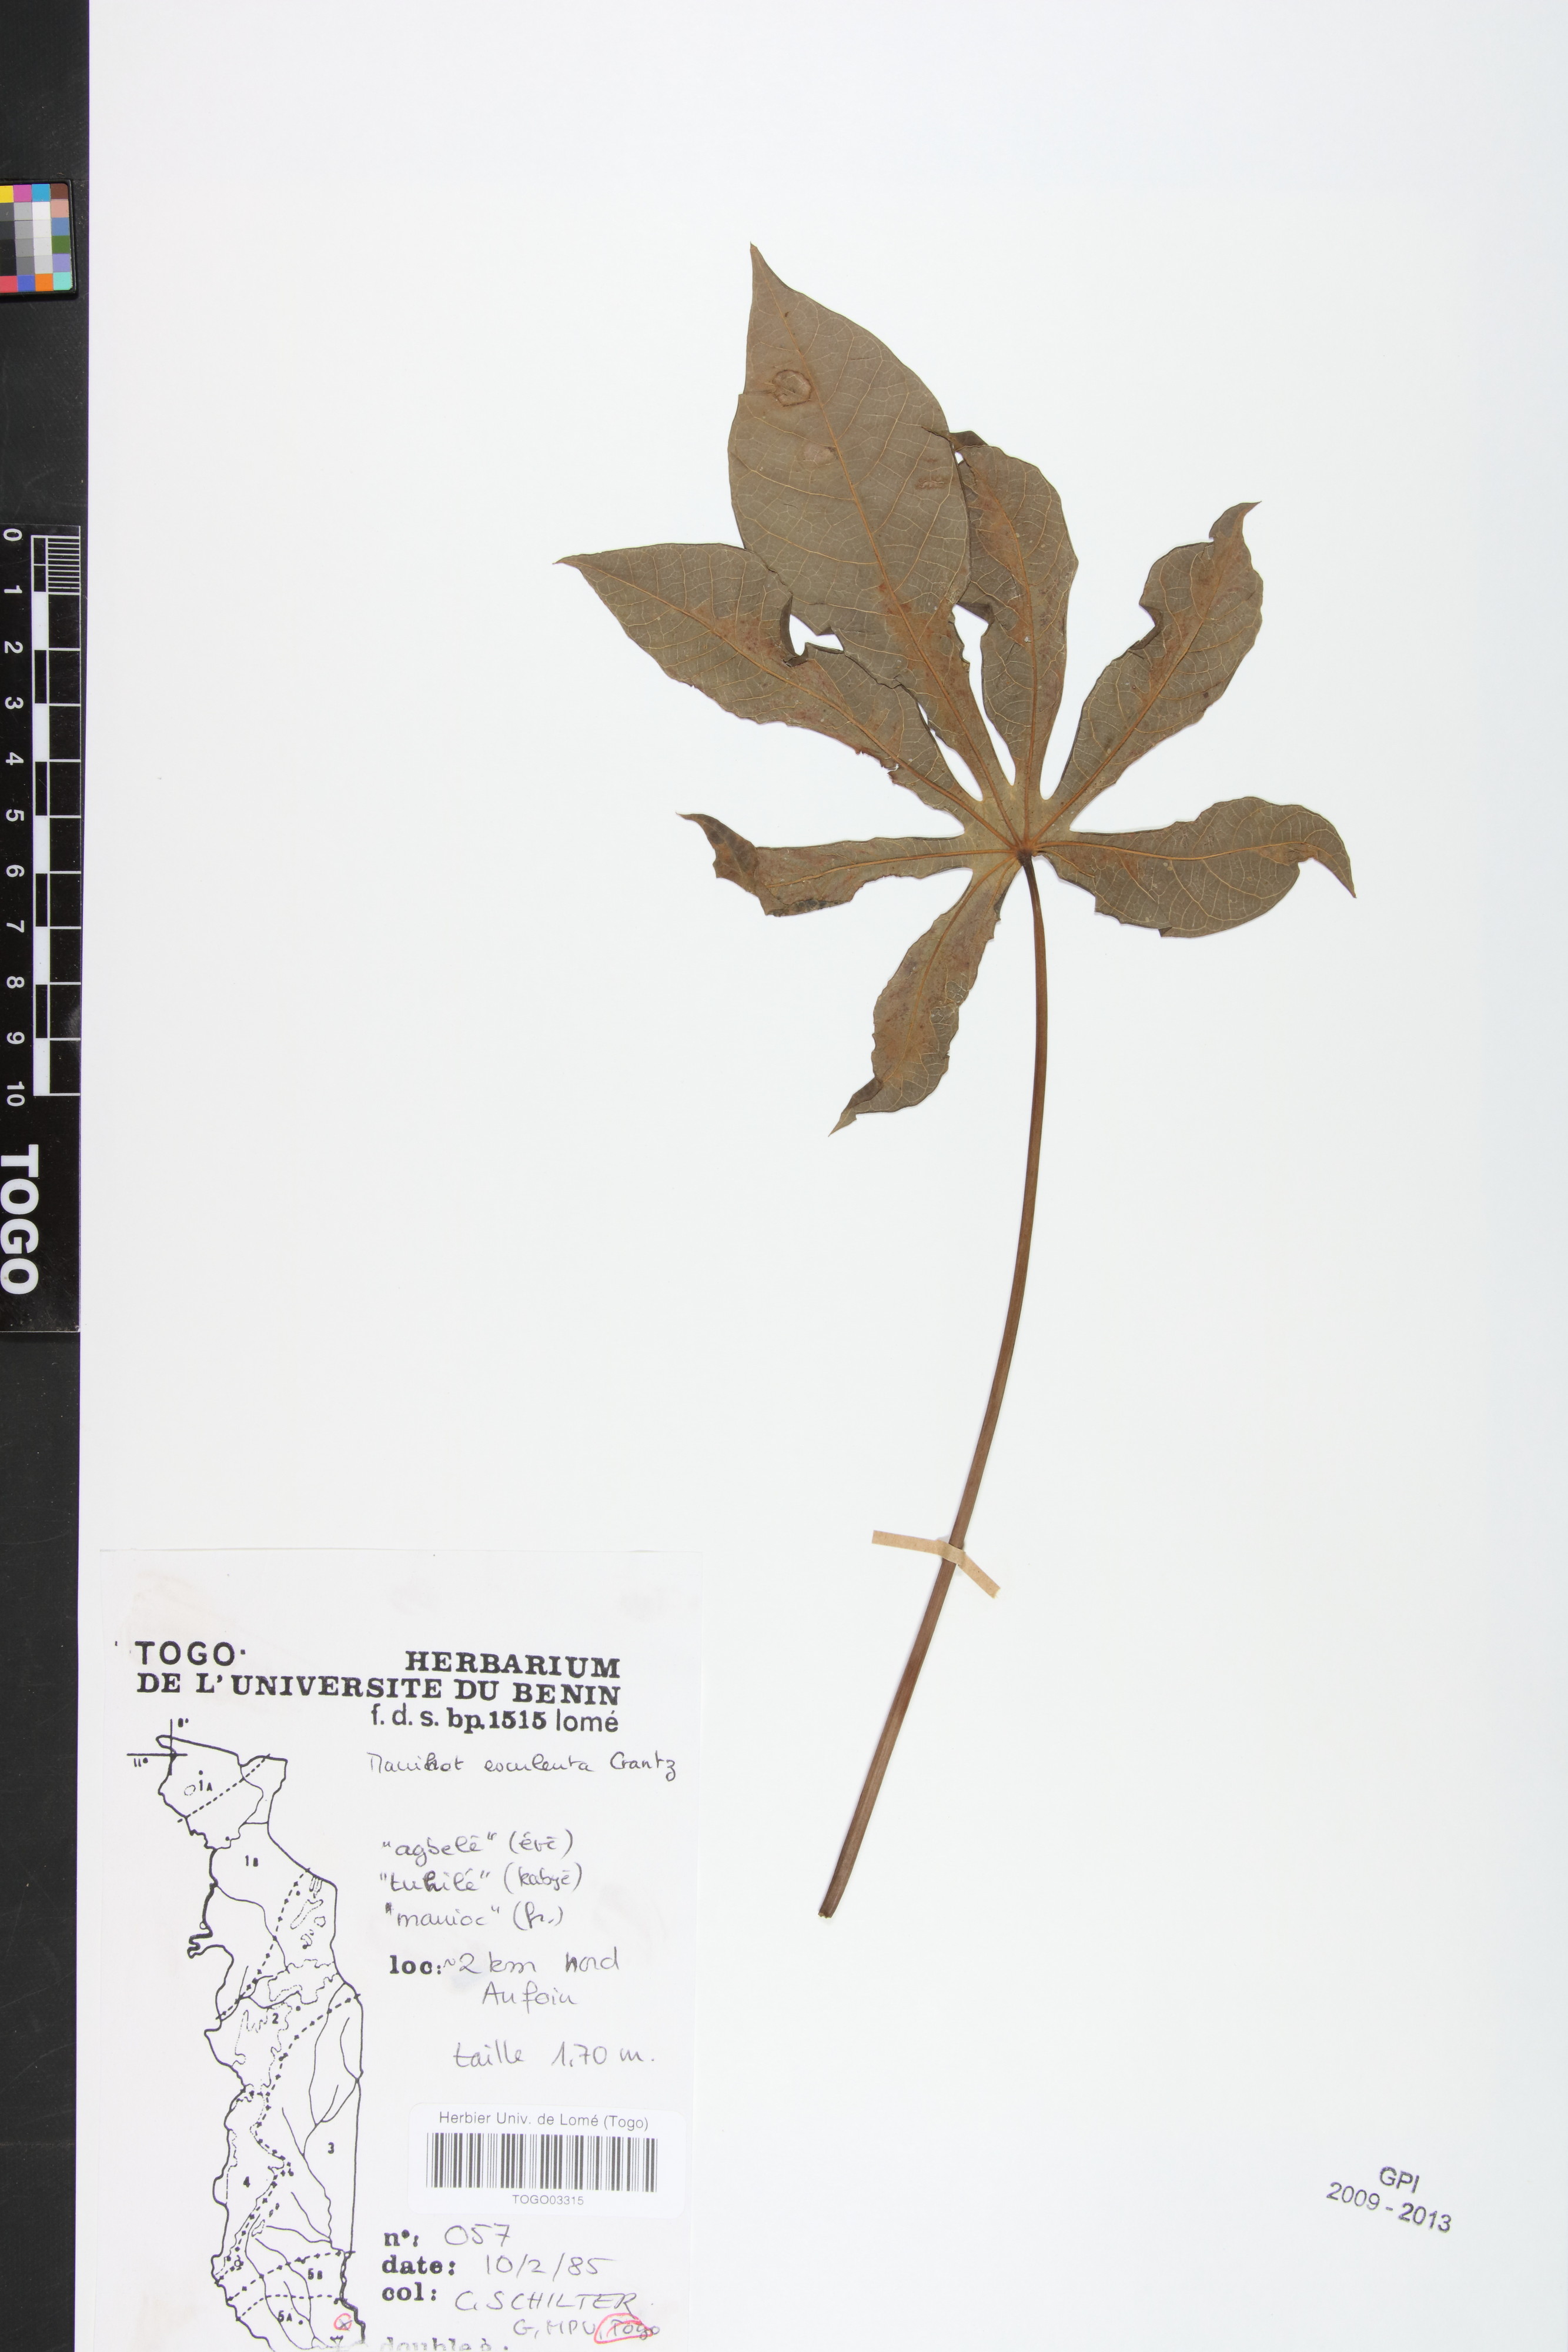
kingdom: Plantae
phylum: Tracheophyta
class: Magnoliopsida
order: Malpighiales
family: Euphorbiaceae
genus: Manihot
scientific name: Manihot esculenta
